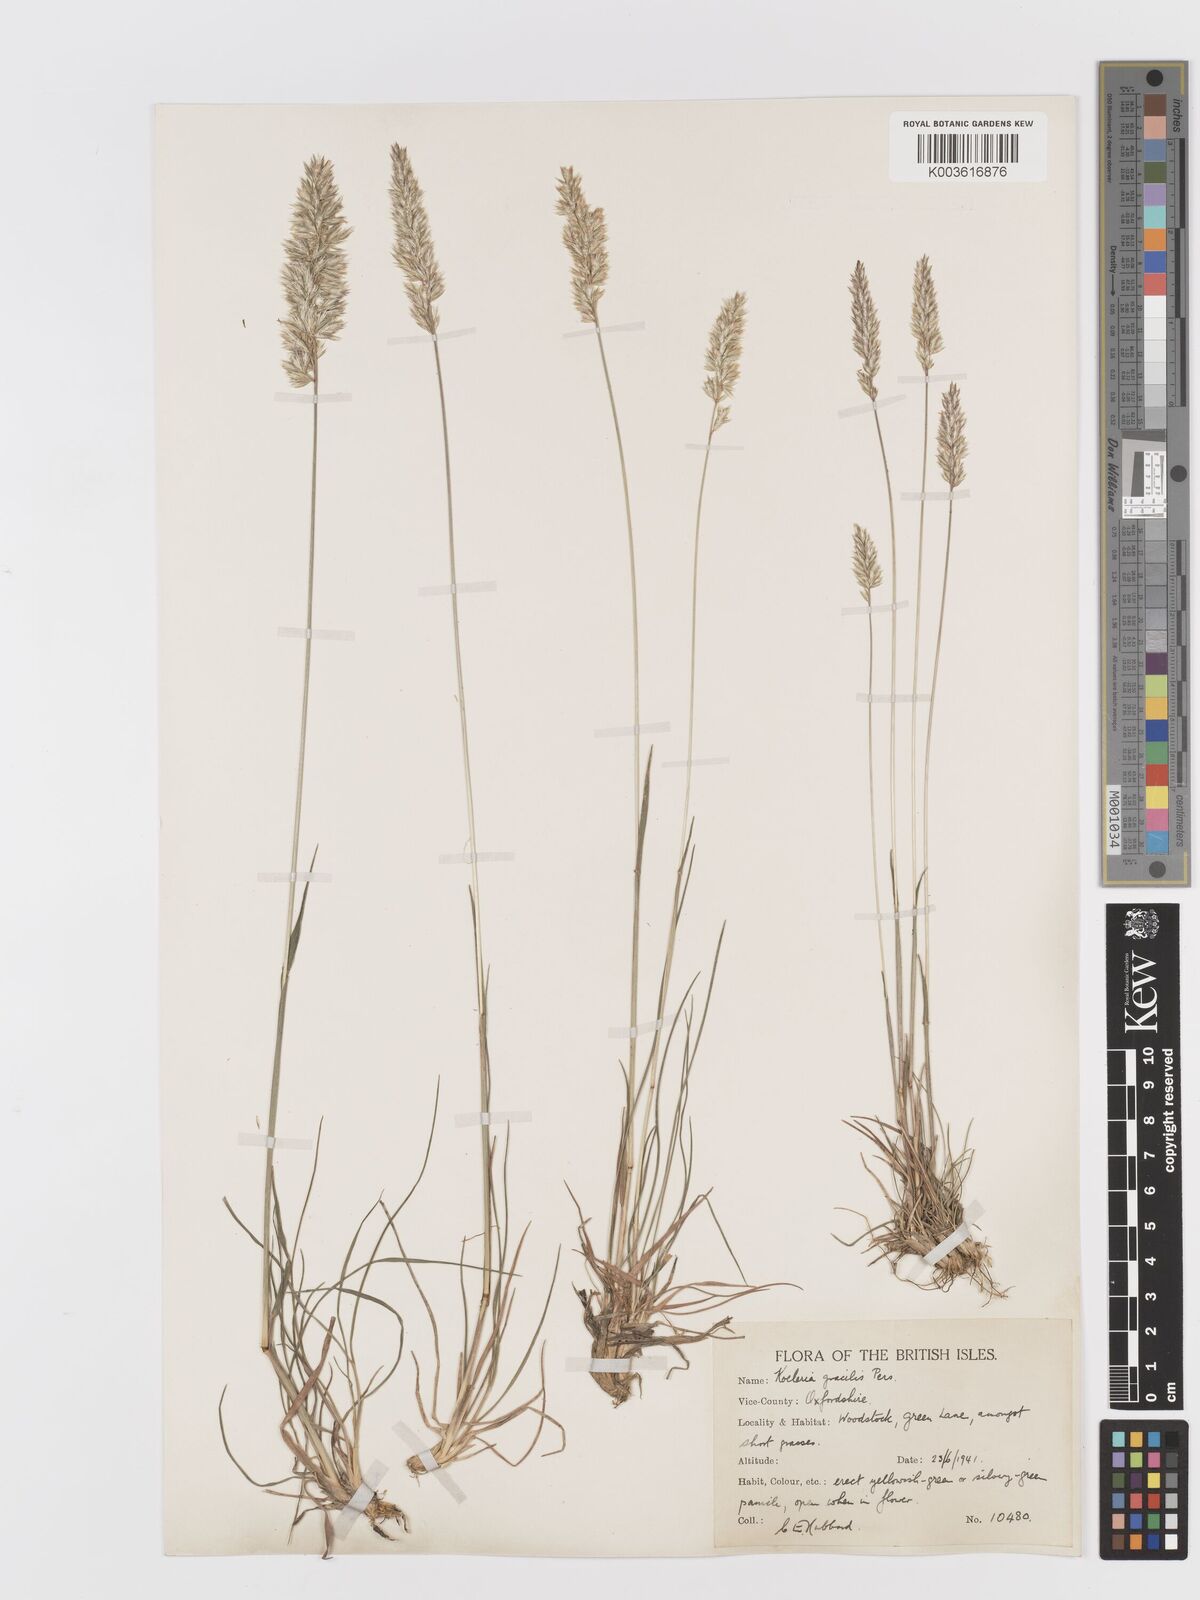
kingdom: Plantae
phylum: Tracheophyta
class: Liliopsida
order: Poales
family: Poaceae
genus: Koeleria
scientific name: Koeleria macrantha
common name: Crested hair-grass
